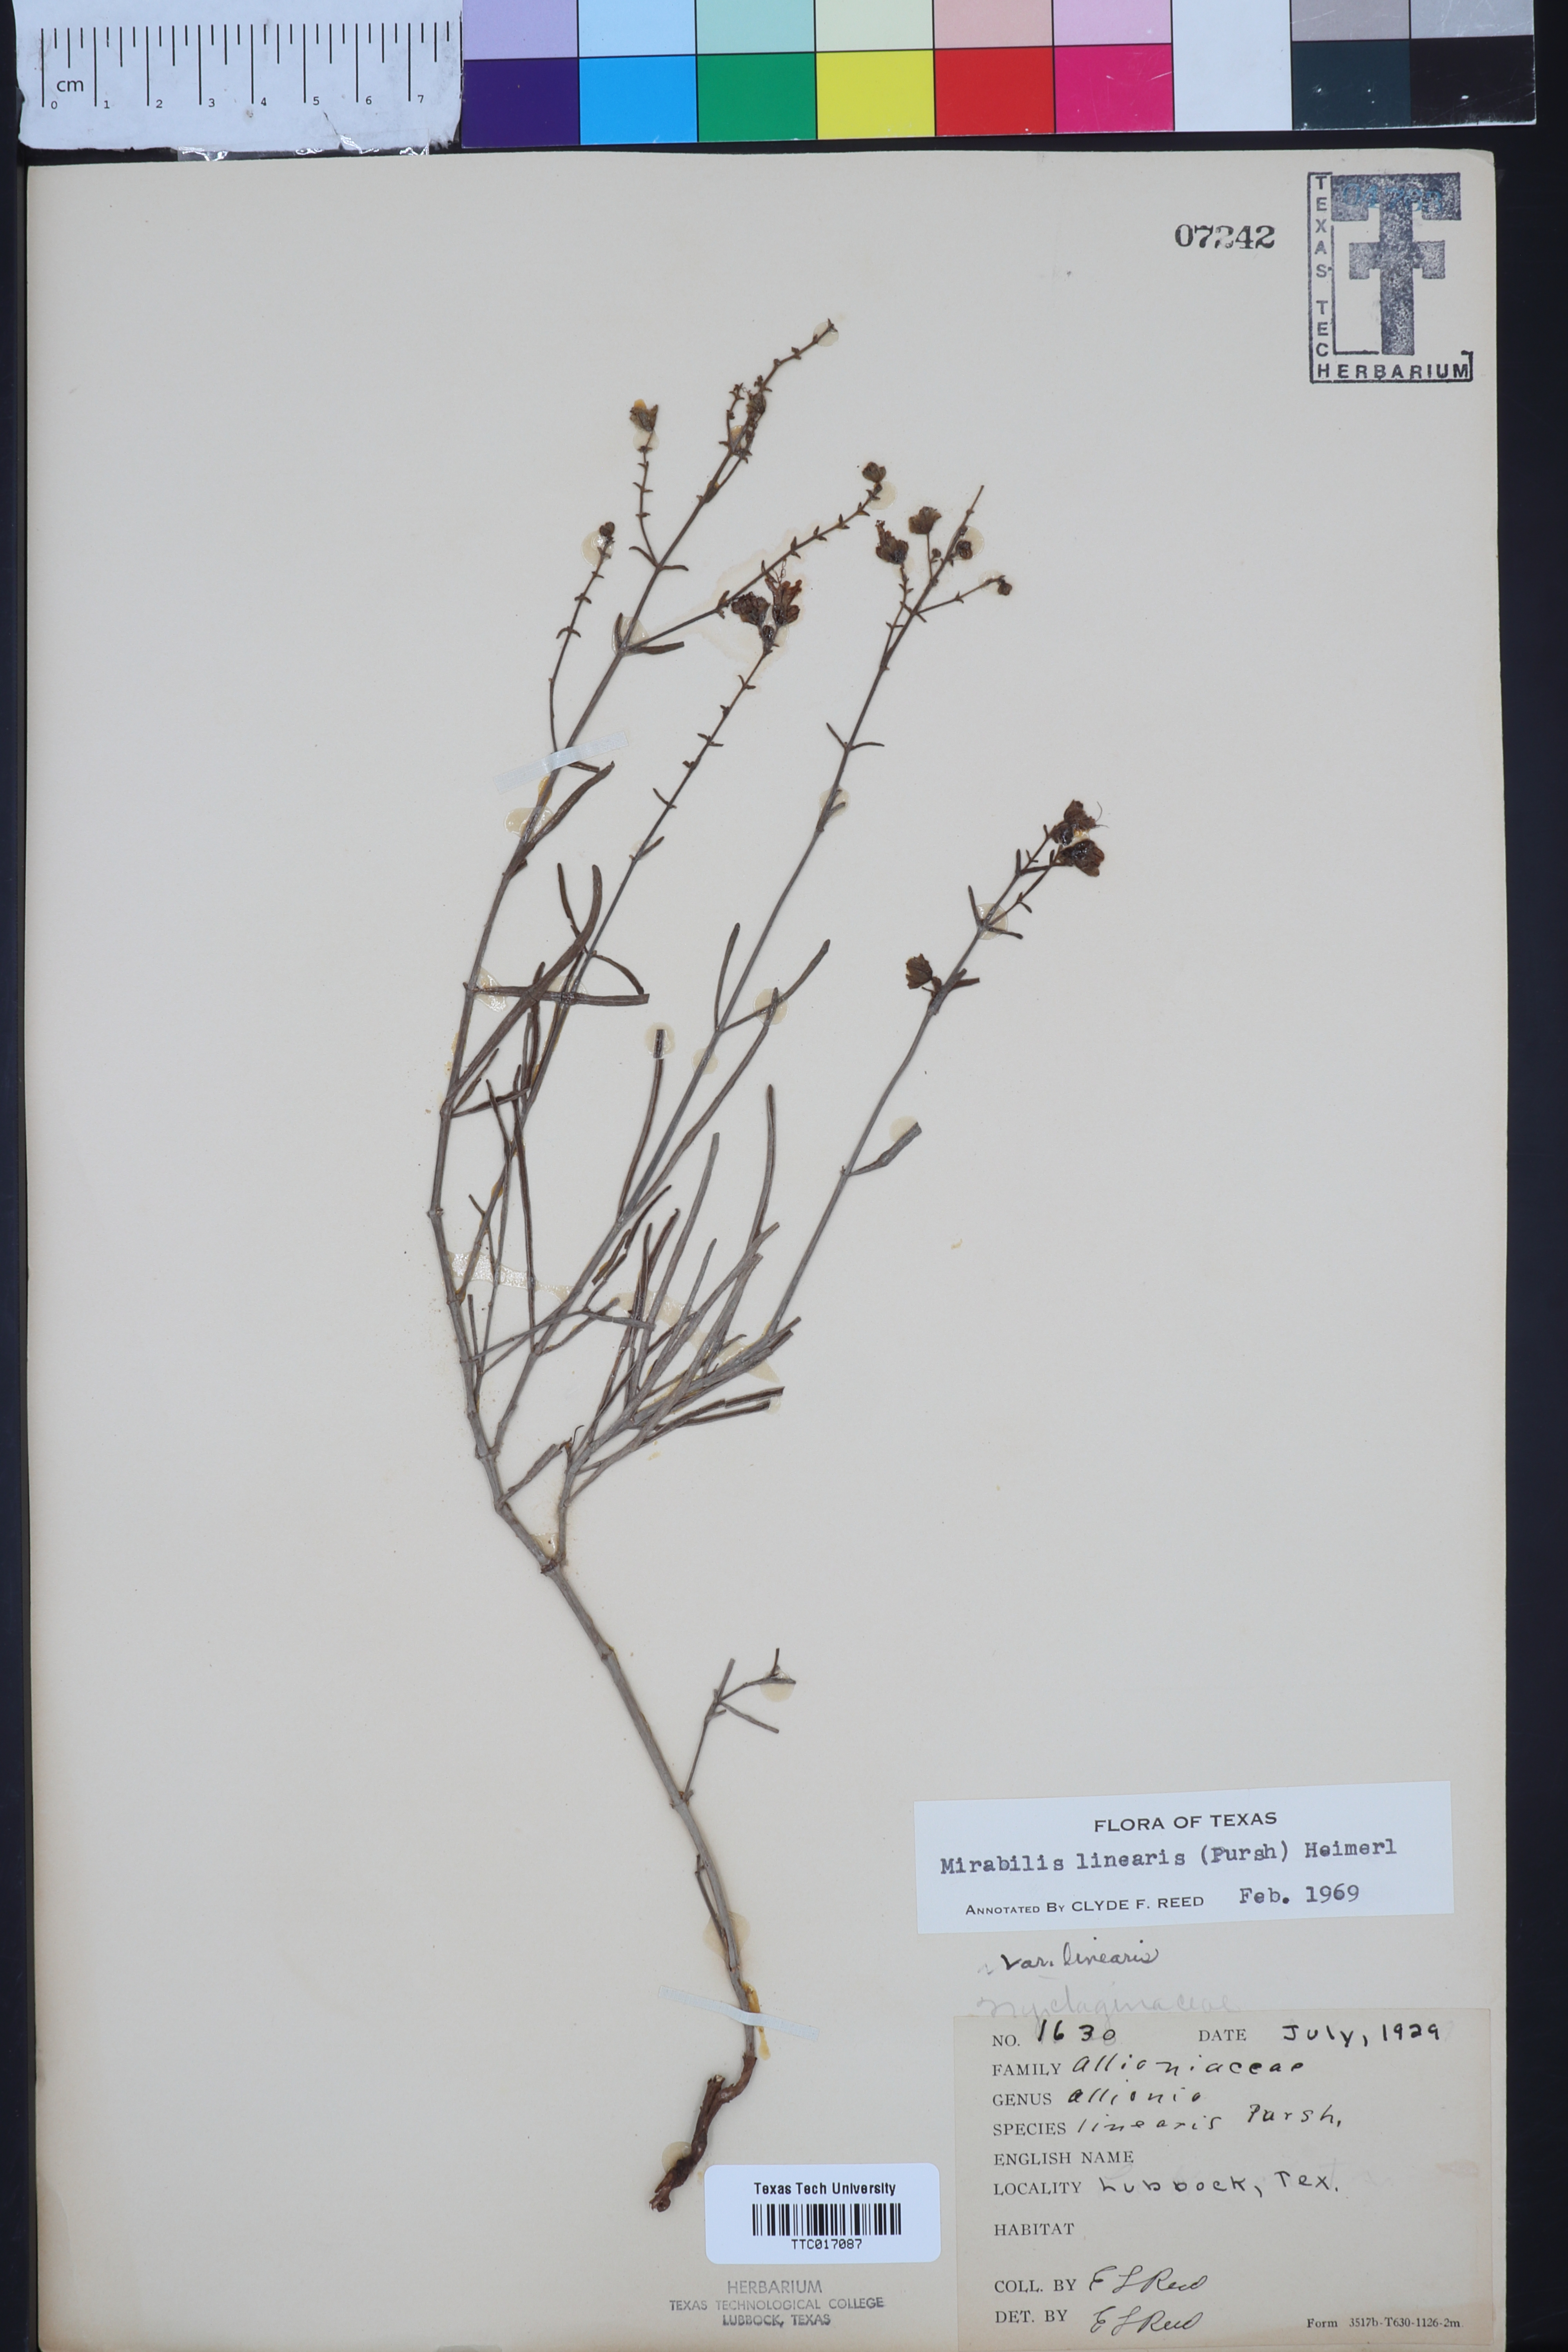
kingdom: Plantae
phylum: Tracheophyta
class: Magnoliopsida
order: Caryophyllales
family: Nyctaginaceae
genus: Mirabilis
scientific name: Mirabilis linearis
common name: Linear-leaved four-o'clock
